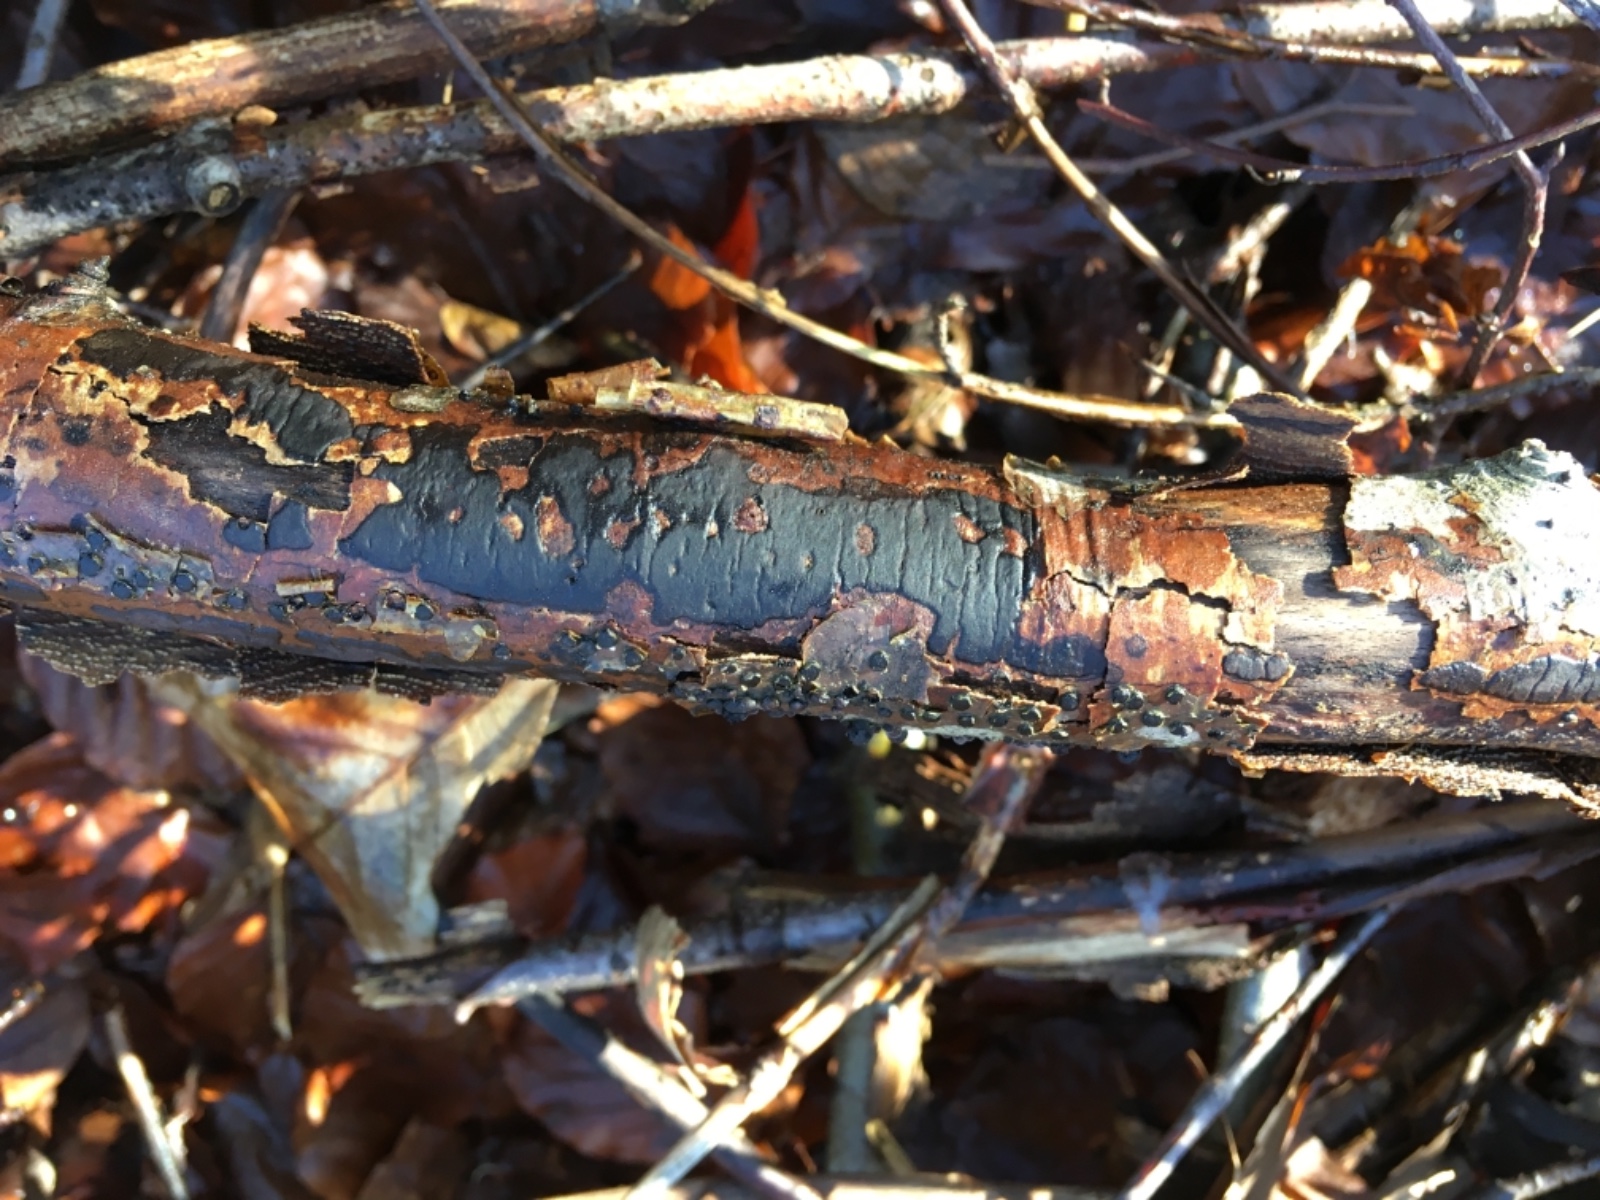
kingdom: Fungi
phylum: Ascomycota
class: Sordariomycetes
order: Xylariales
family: Diatrypaceae
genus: Diatrype
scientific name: Diatrype decorticata
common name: barksprænger-kulskorpe
